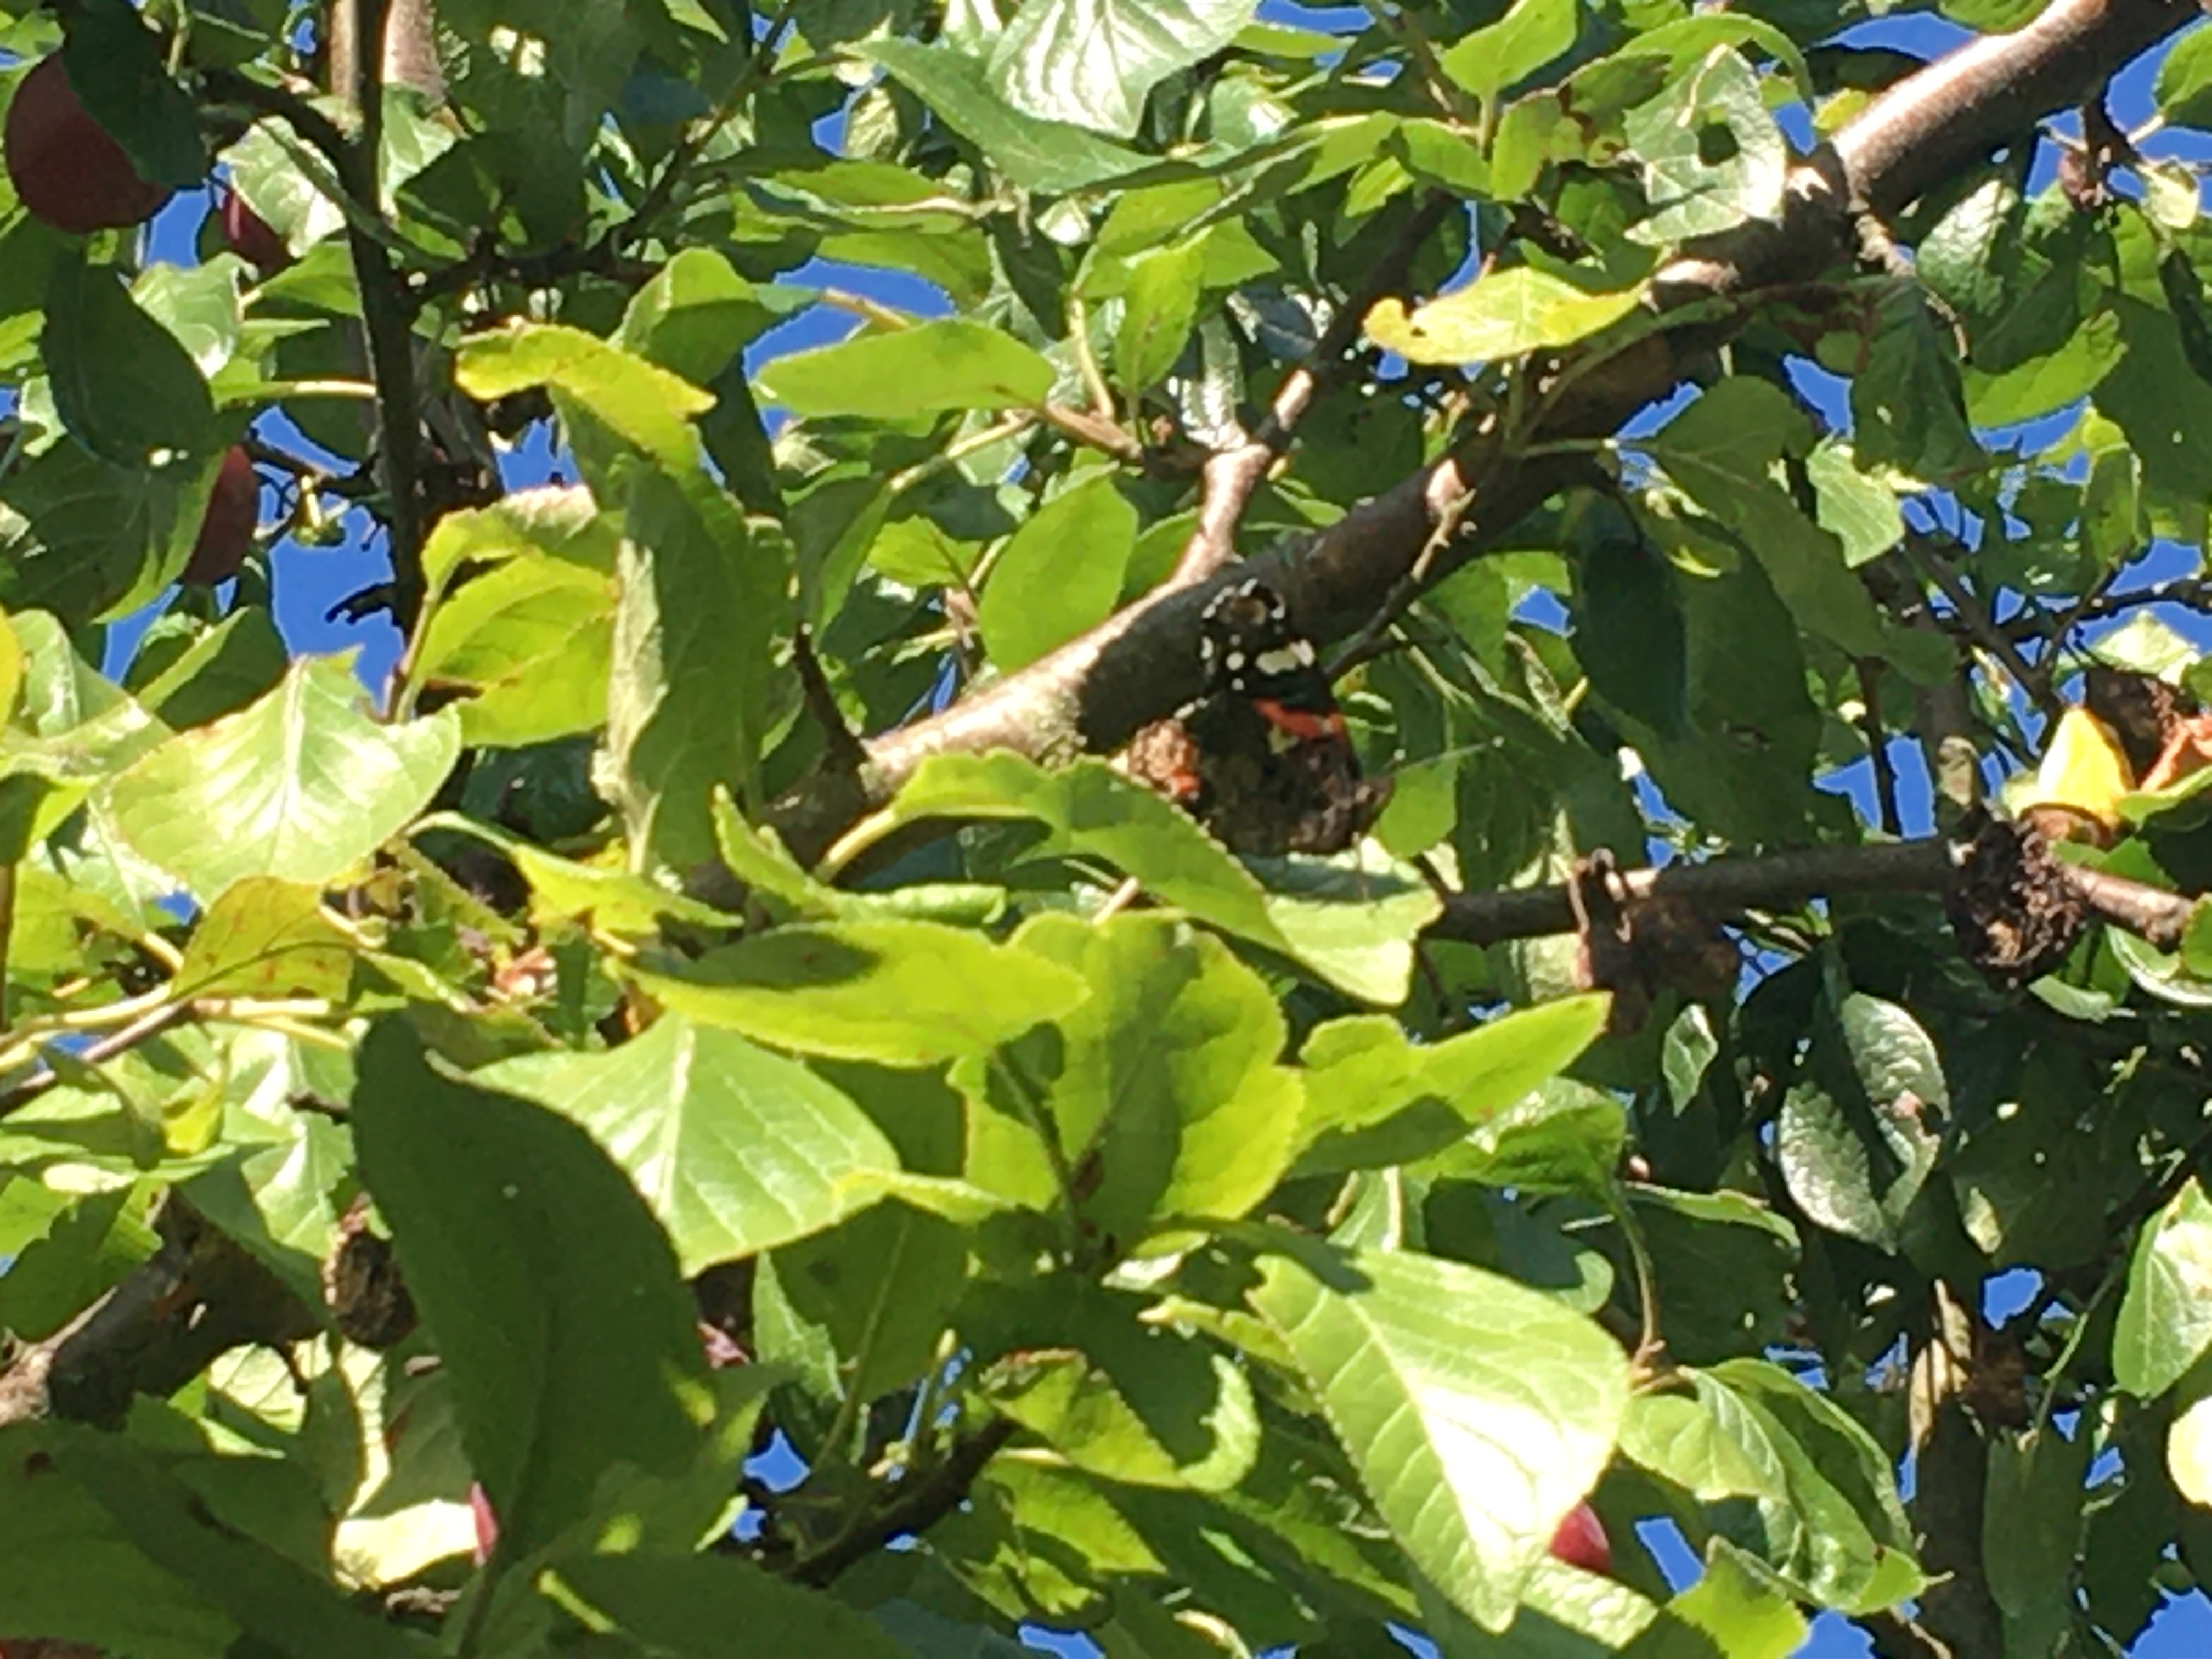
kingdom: Animalia
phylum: Arthropoda
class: Insecta
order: Lepidoptera
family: Nymphalidae
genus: Vanessa
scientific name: Vanessa atalanta
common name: Admiral
